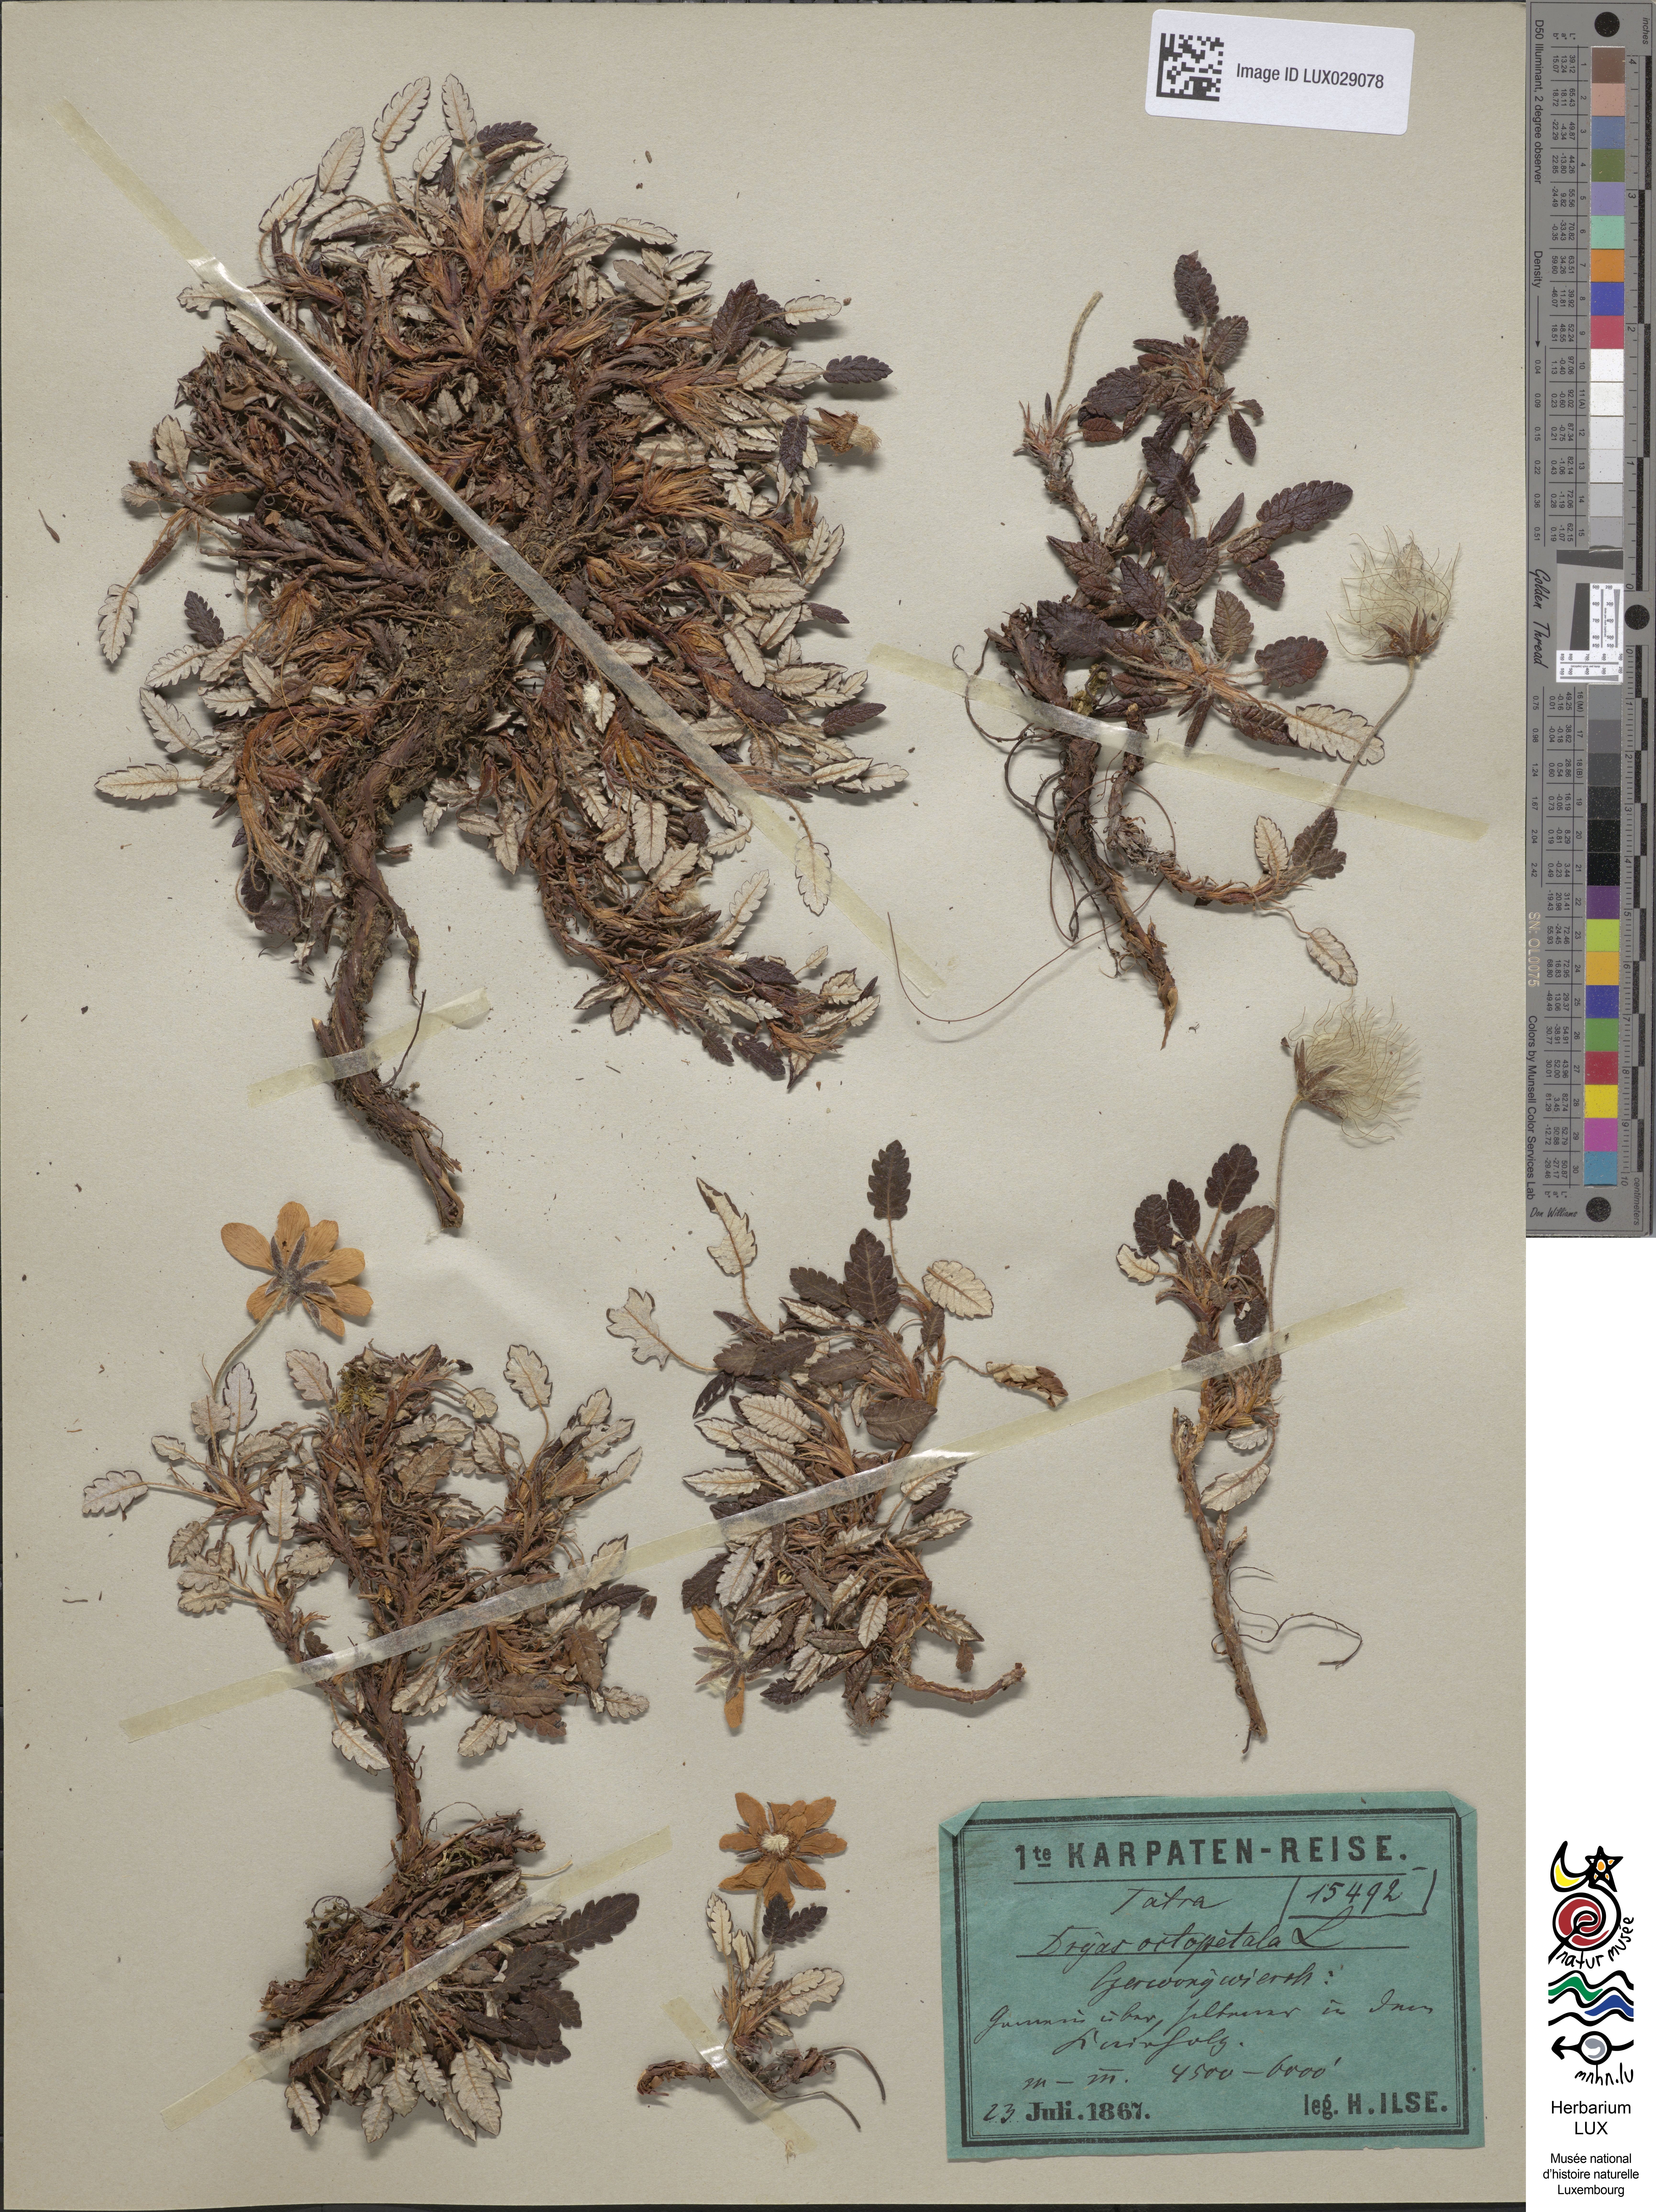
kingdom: Plantae
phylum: Tracheophyta
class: Magnoliopsida
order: Rosales
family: Rosaceae
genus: Dryas
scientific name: Dryas octopetala
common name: Eight-petal mountain-avens
